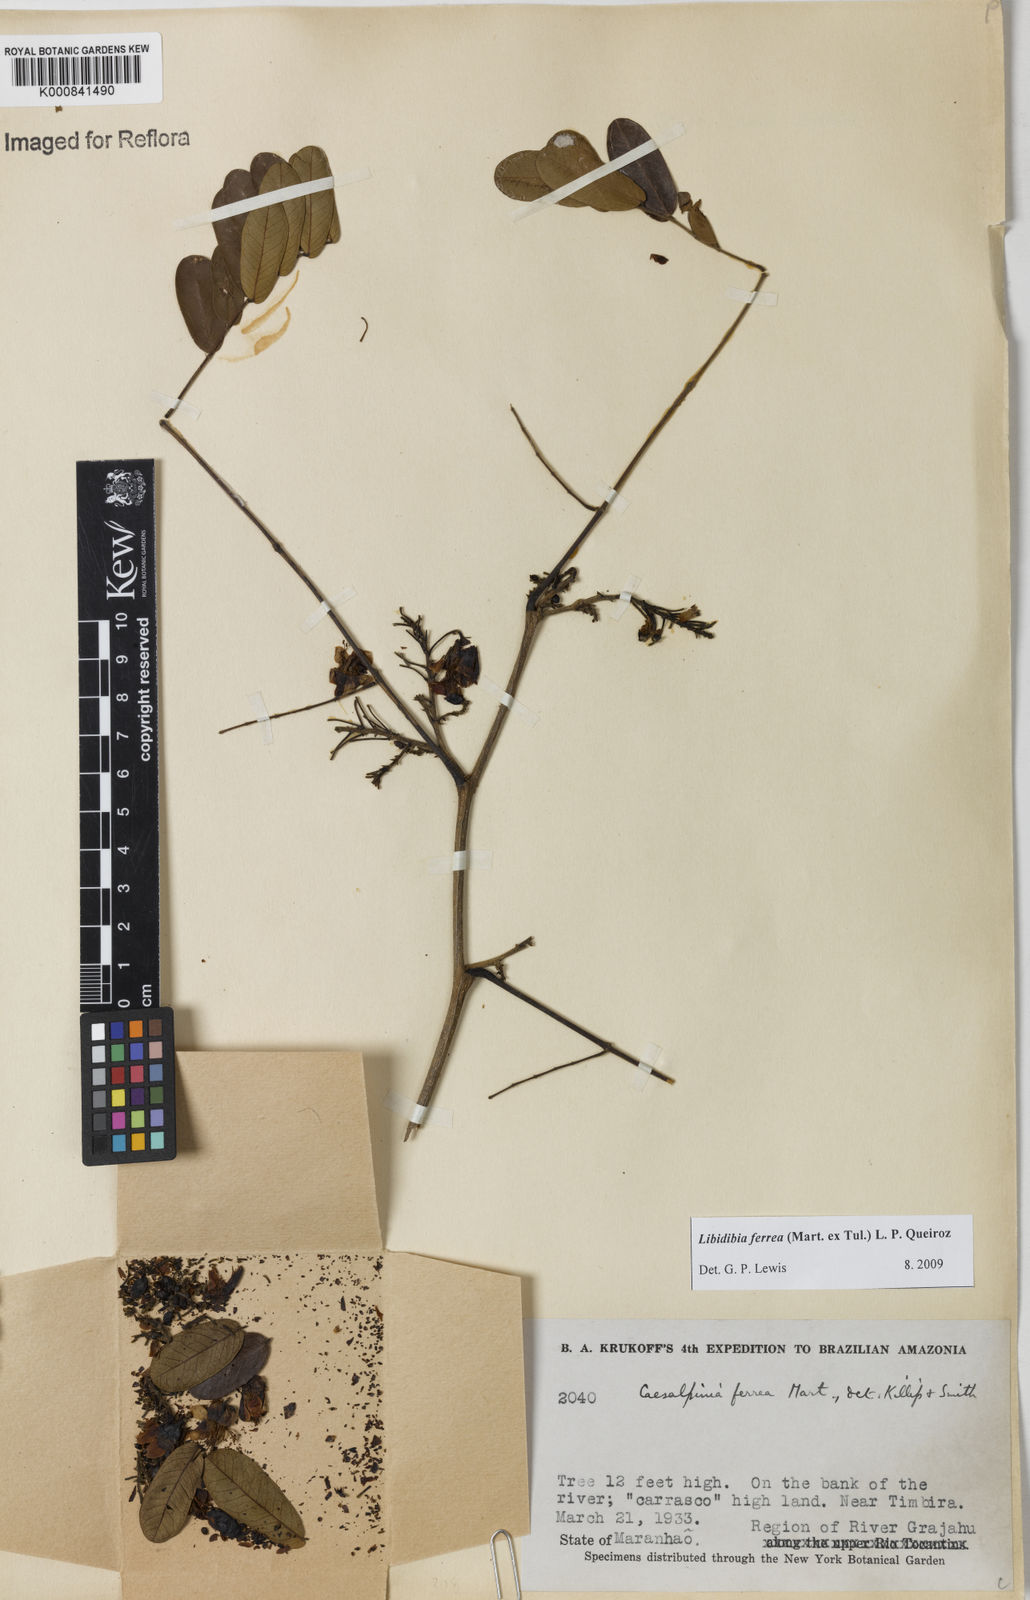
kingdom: Plantae
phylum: Tracheophyta
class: Magnoliopsida
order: Fabales
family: Fabaceae
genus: Libidibia
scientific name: Libidibia ferrea
